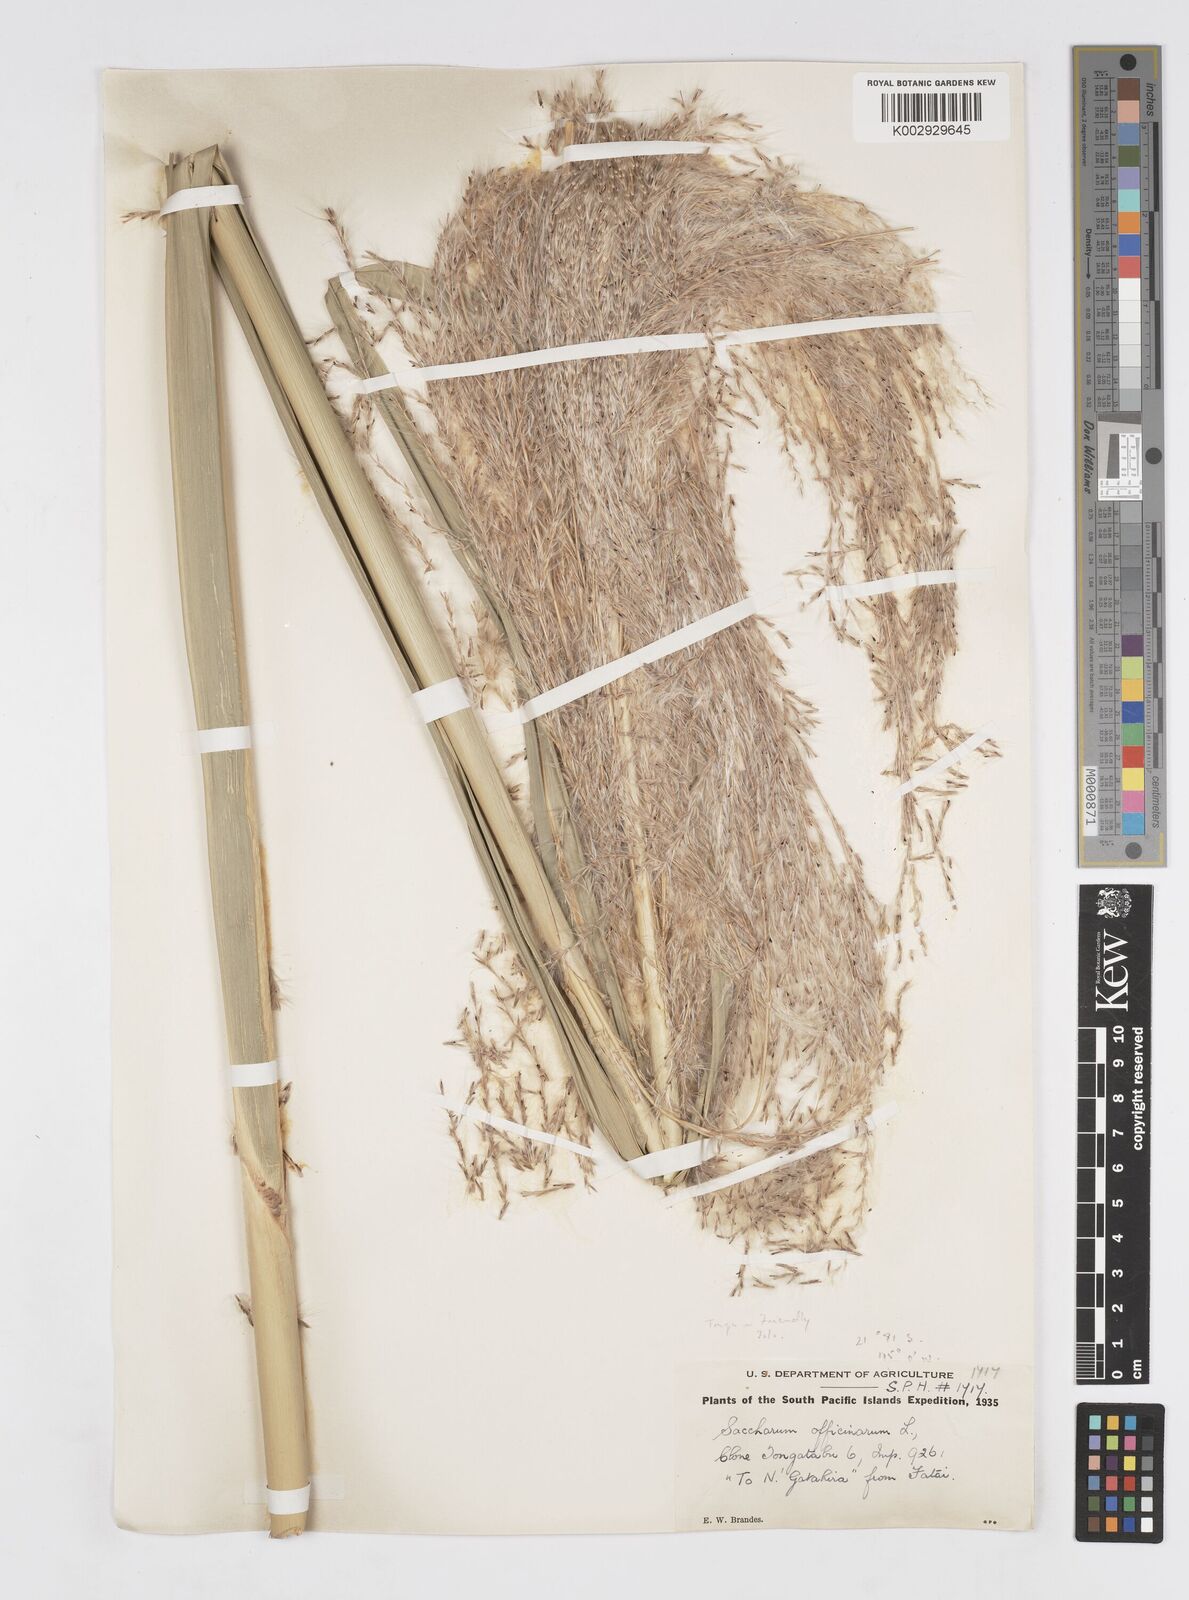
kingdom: Plantae
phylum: Tracheophyta
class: Liliopsida
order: Poales
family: Poaceae
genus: Saccharum
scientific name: Saccharum officinarum
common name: Sugarcane
